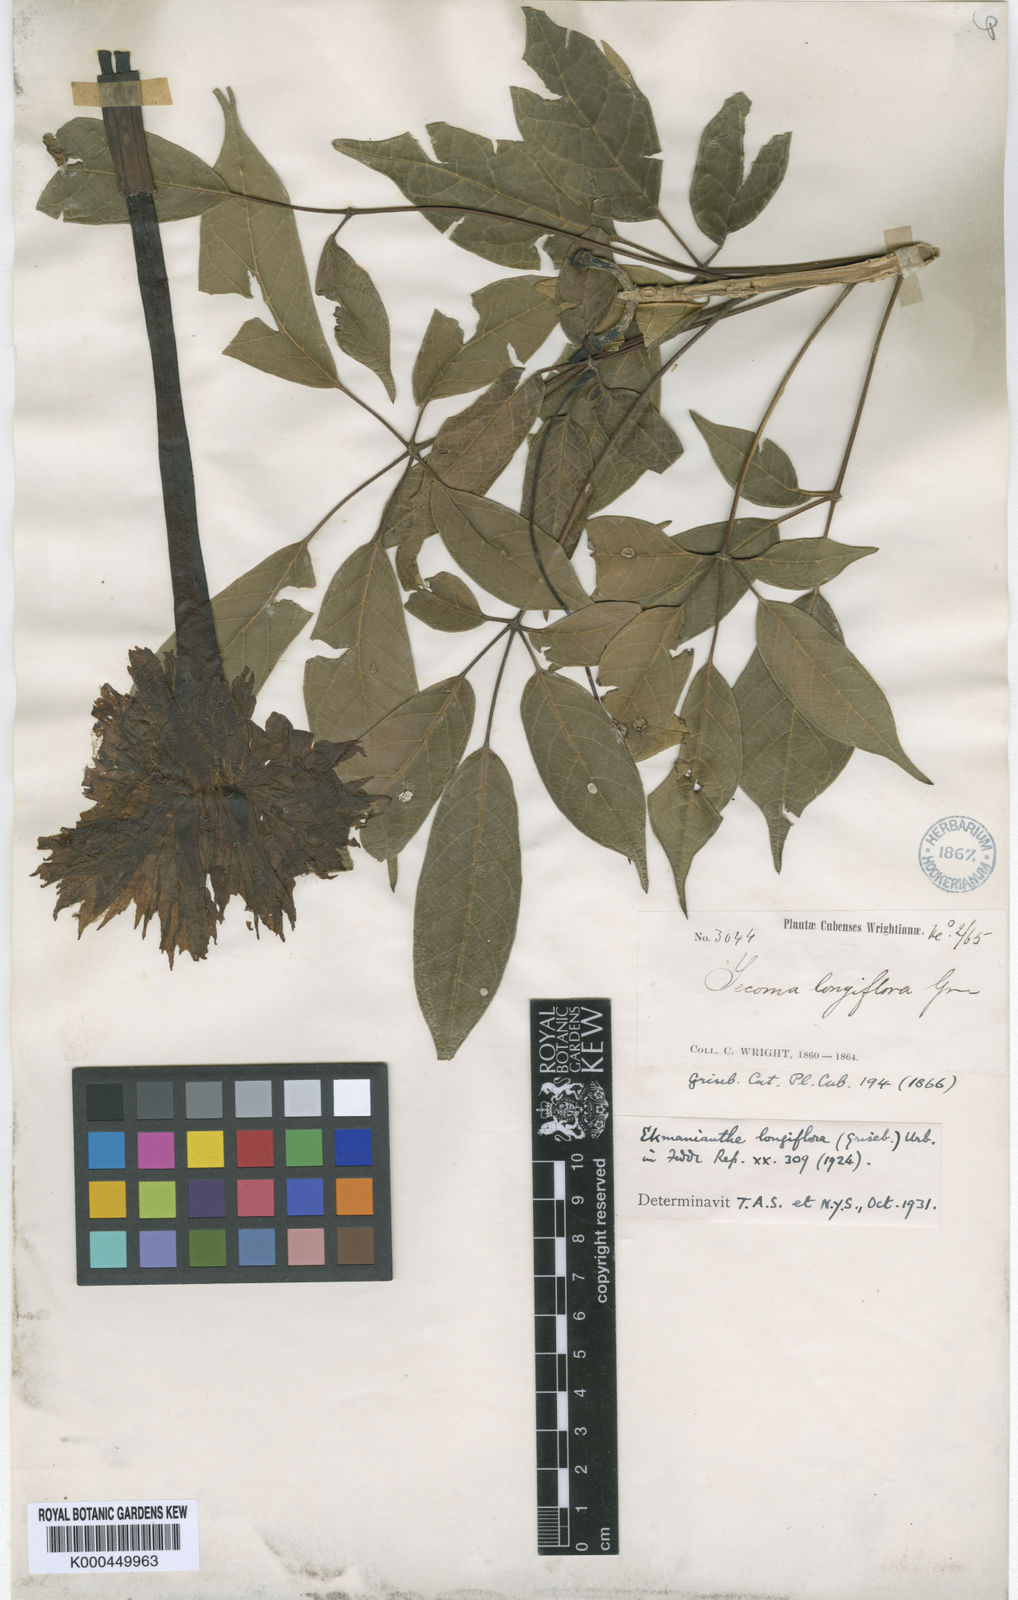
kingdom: Plantae
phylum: Tracheophyta
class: Magnoliopsida
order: Lamiales
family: Bignoniaceae
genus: Ekmanianthe
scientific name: Ekmanianthe longiflora
